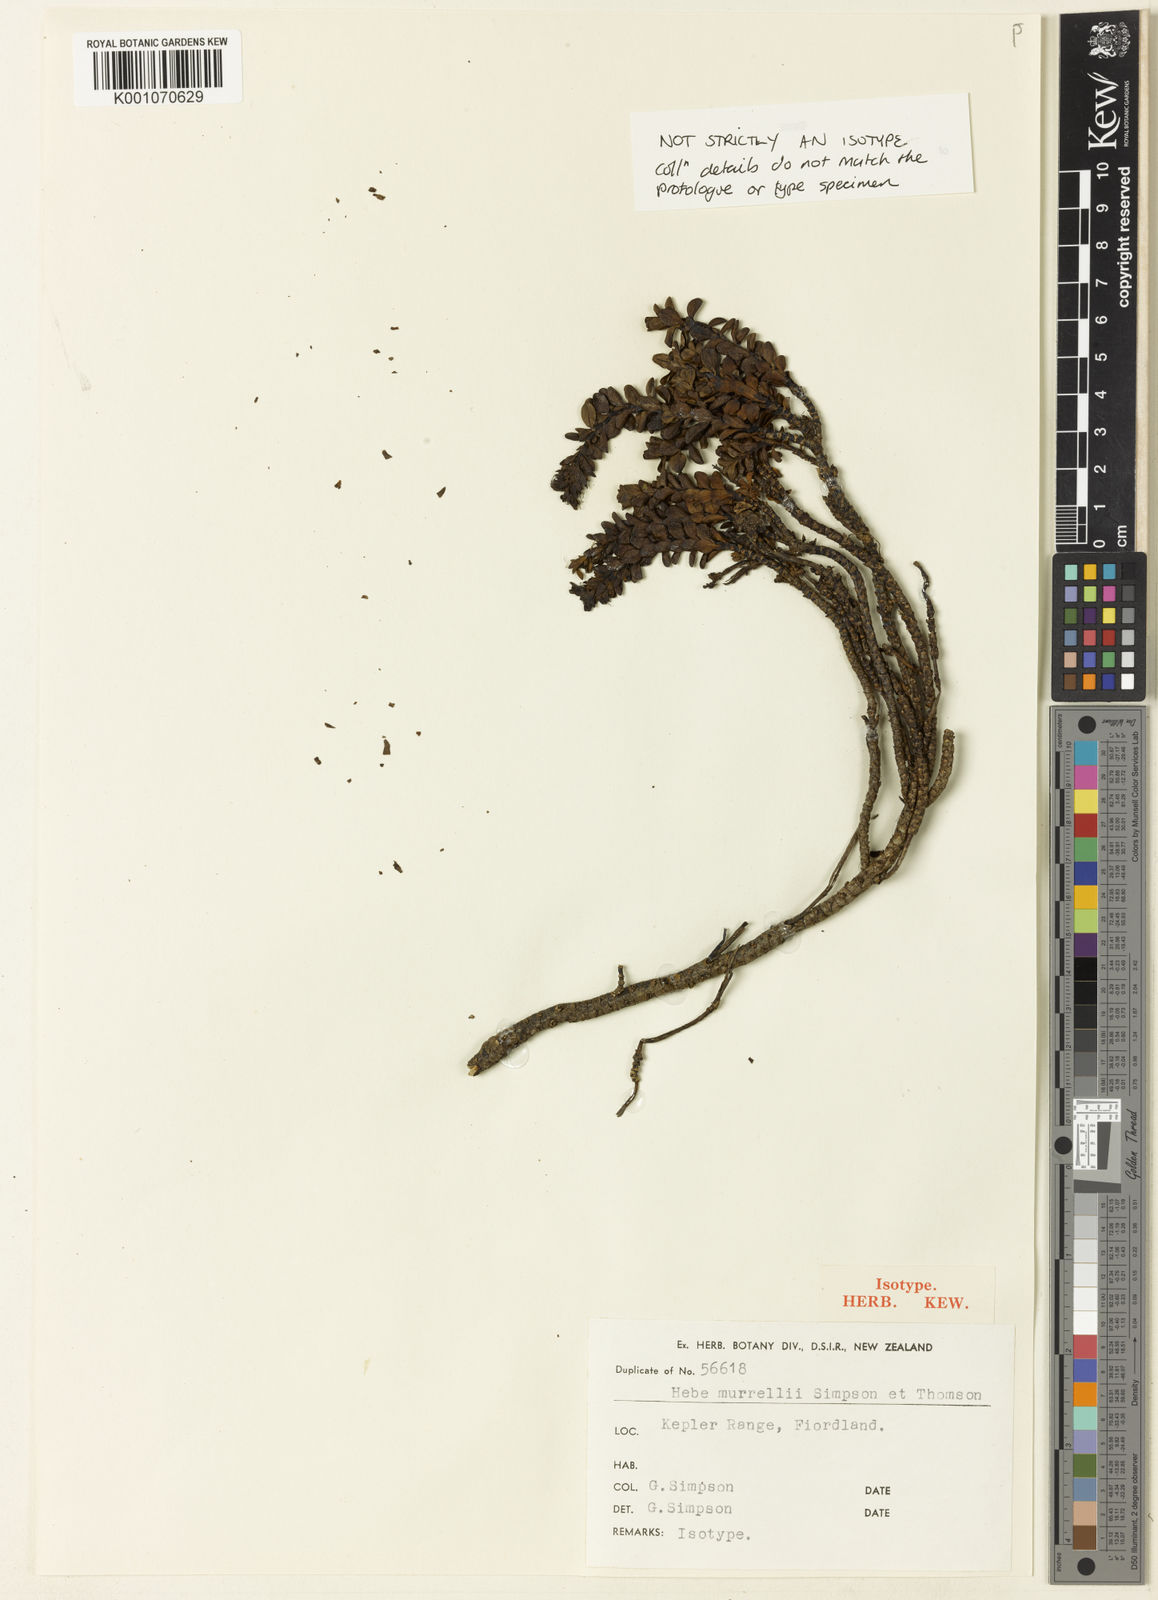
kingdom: Plantae
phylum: Tracheophyta
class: Magnoliopsida
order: Lamiales
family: Plantaginaceae
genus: Veronica
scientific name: Veronica
